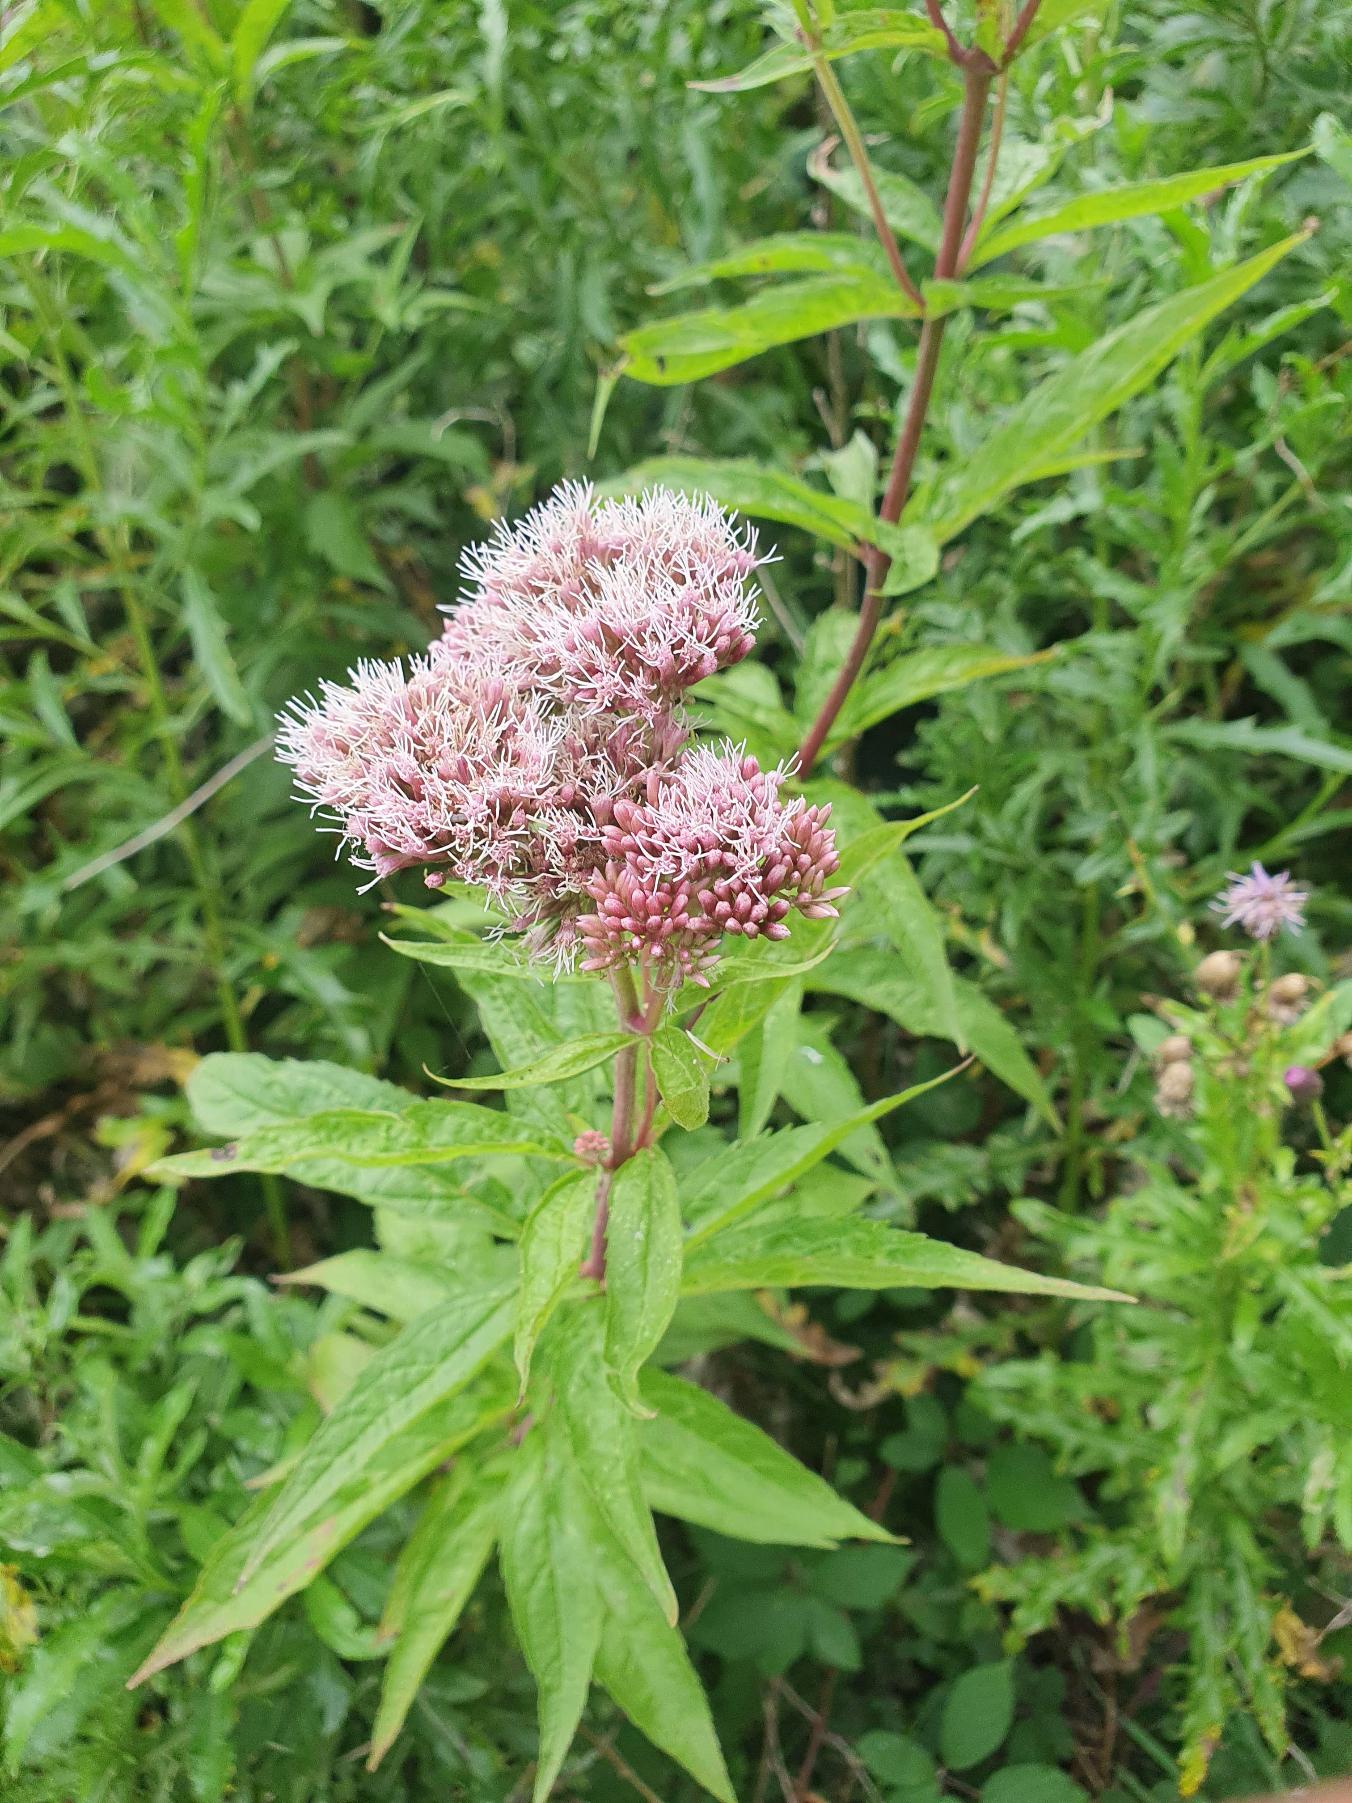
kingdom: Plantae
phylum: Tracheophyta
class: Magnoliopsida
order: Asterales
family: Asteraceae
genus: Eupatorium
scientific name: Eupatorium cannabinum
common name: Hjortetrøst
